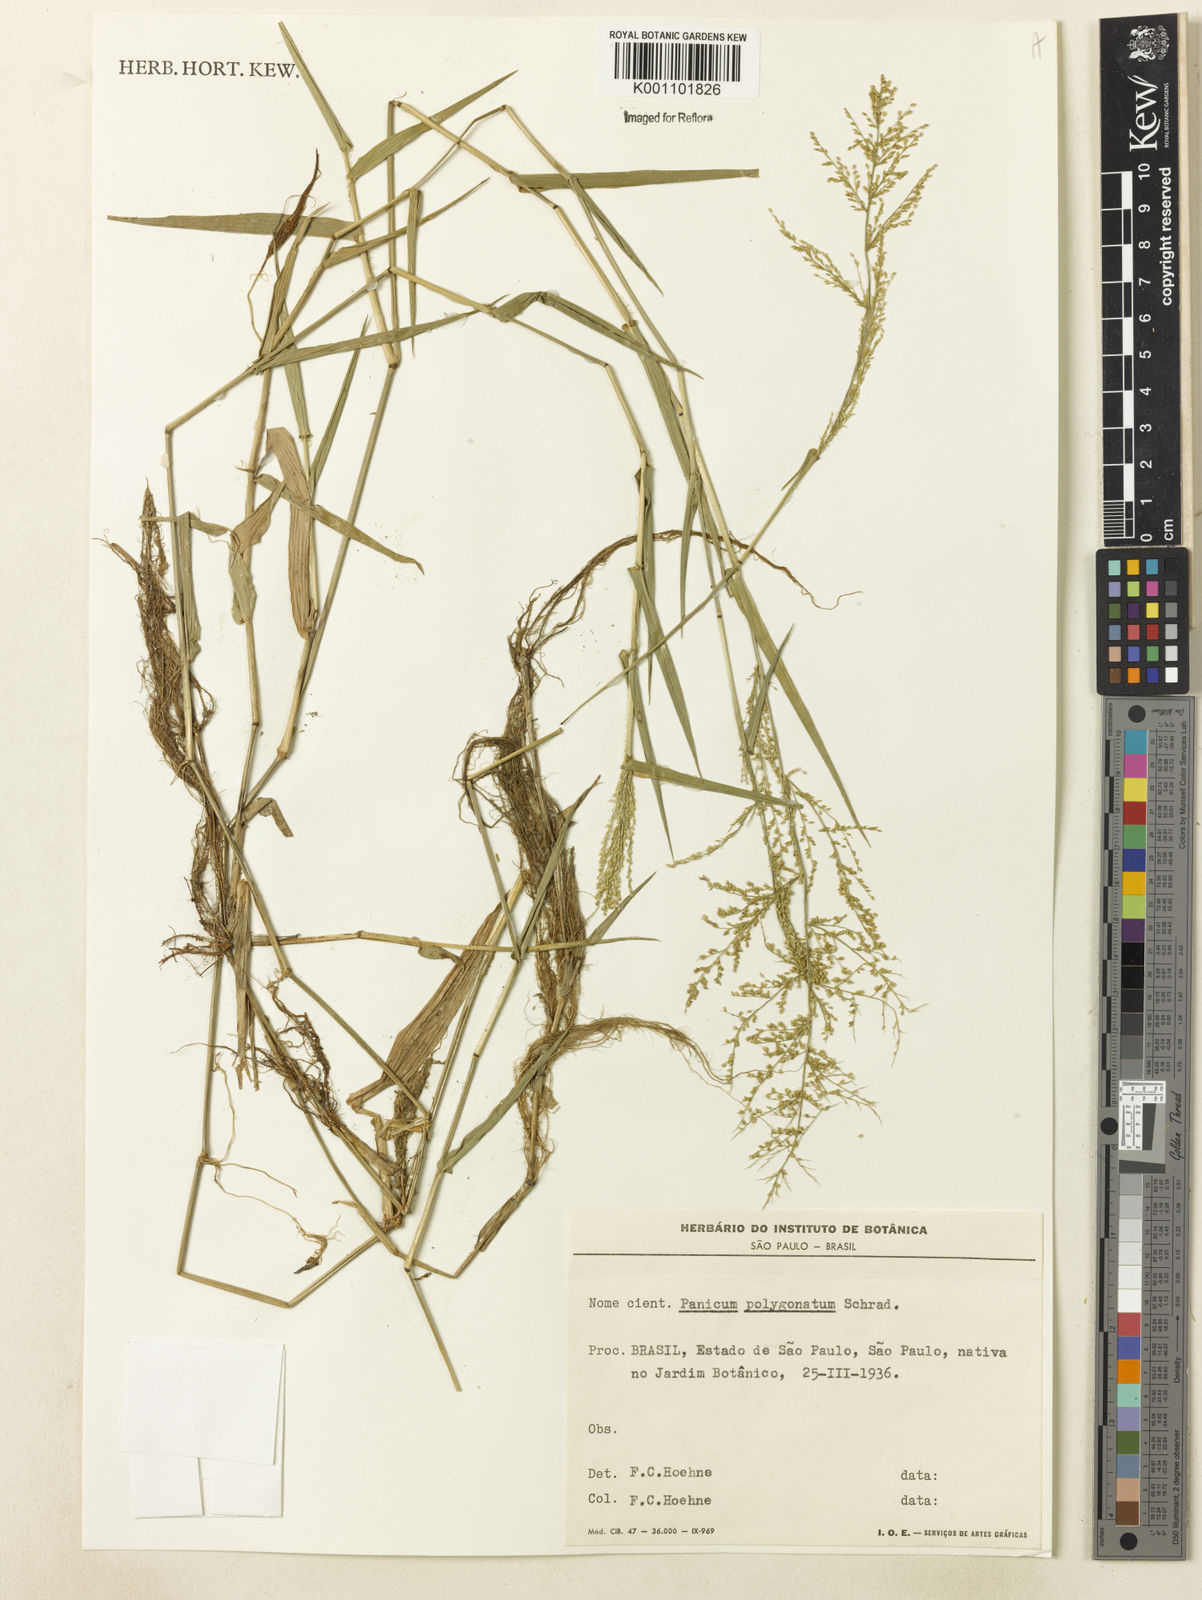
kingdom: Plantae
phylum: Tracheophyta
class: Liliopsida
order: Poales
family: Poaceae
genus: Rugoloa
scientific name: Rugoloa polygonata
